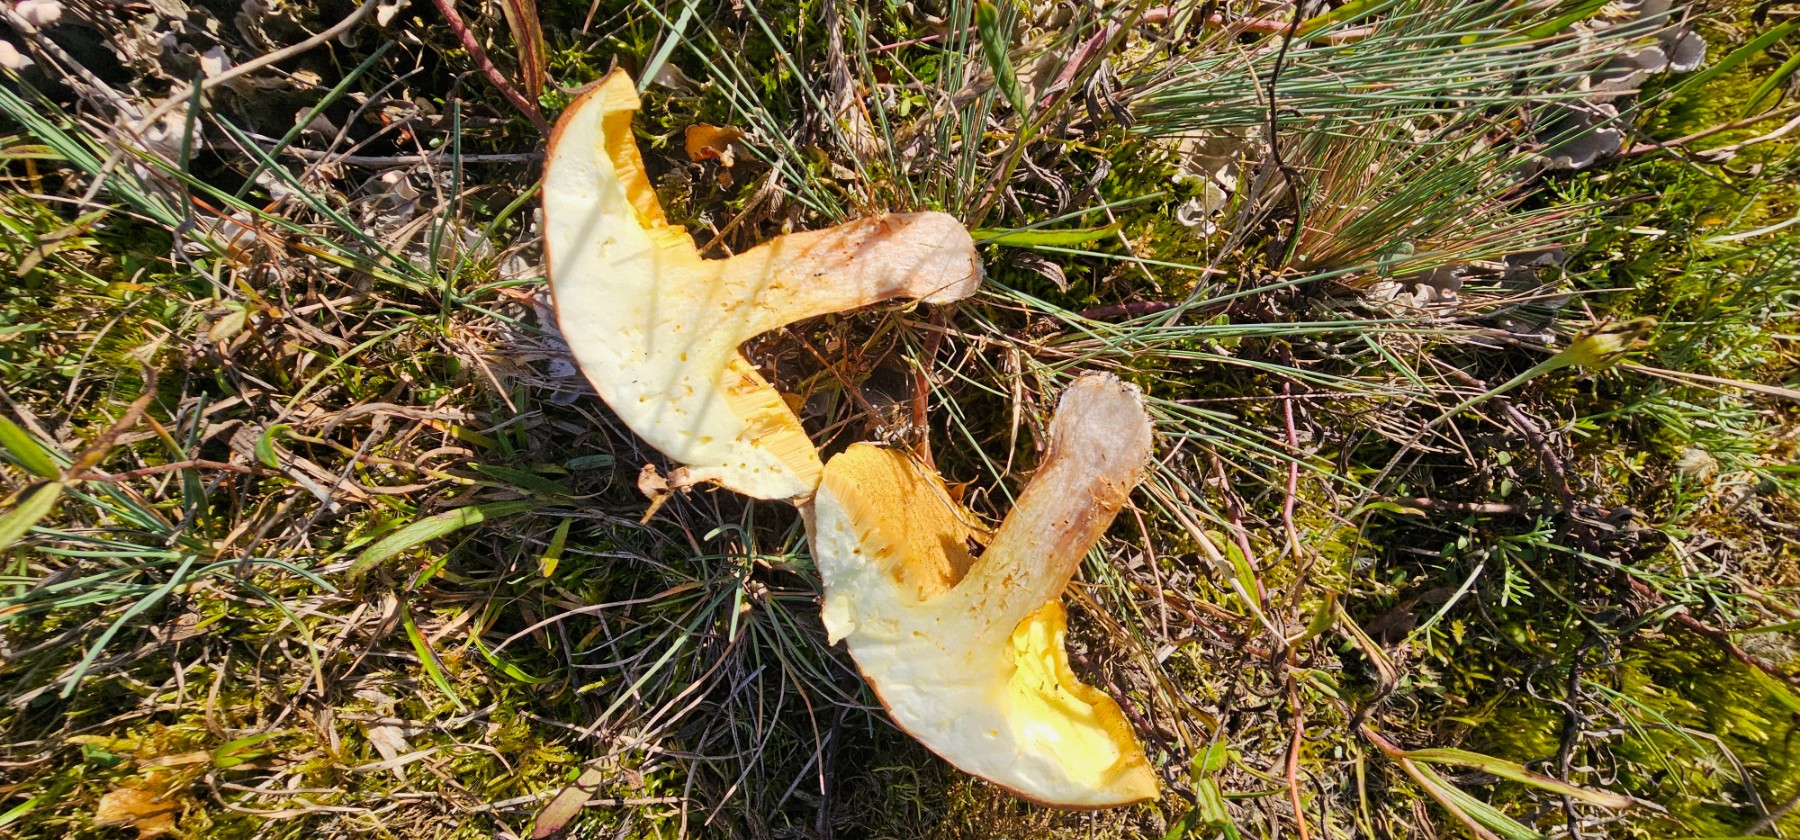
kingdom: Fungi
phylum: Basidiomycota
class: Agaricomycetes
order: Boletales
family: Suillaceae
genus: Suillus
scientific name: Suillus luteus
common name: brungul slimrørhat
